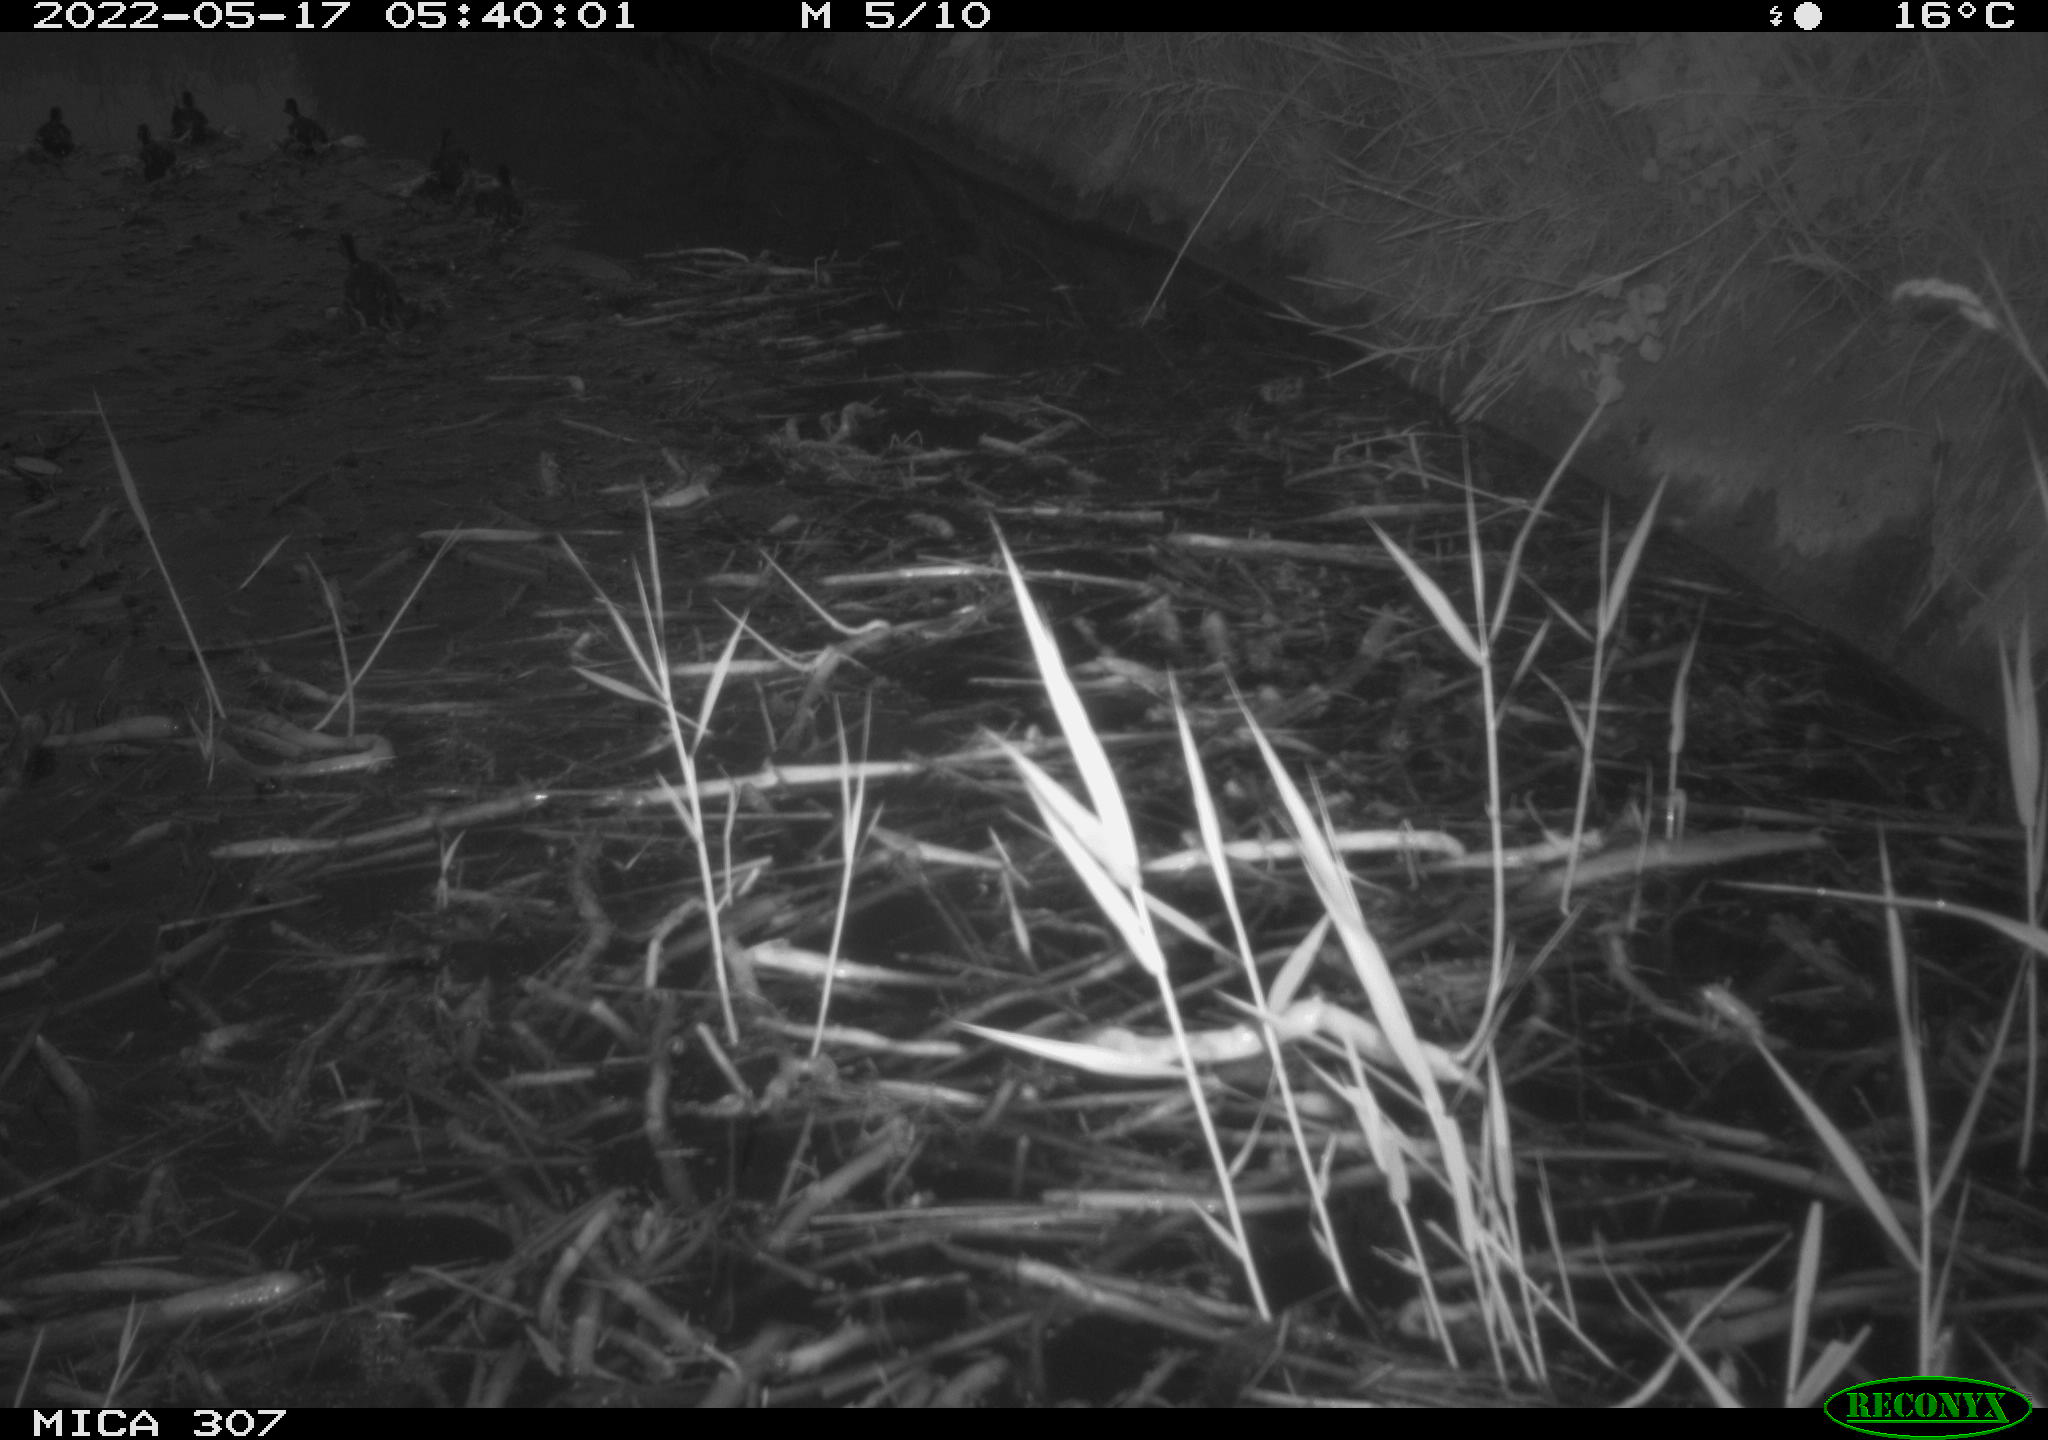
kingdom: Animalia
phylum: Chordata
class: Aves
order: Gruiformes
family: Rallidae
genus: Fulica
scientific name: Fulica atra
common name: Eurasian coot
